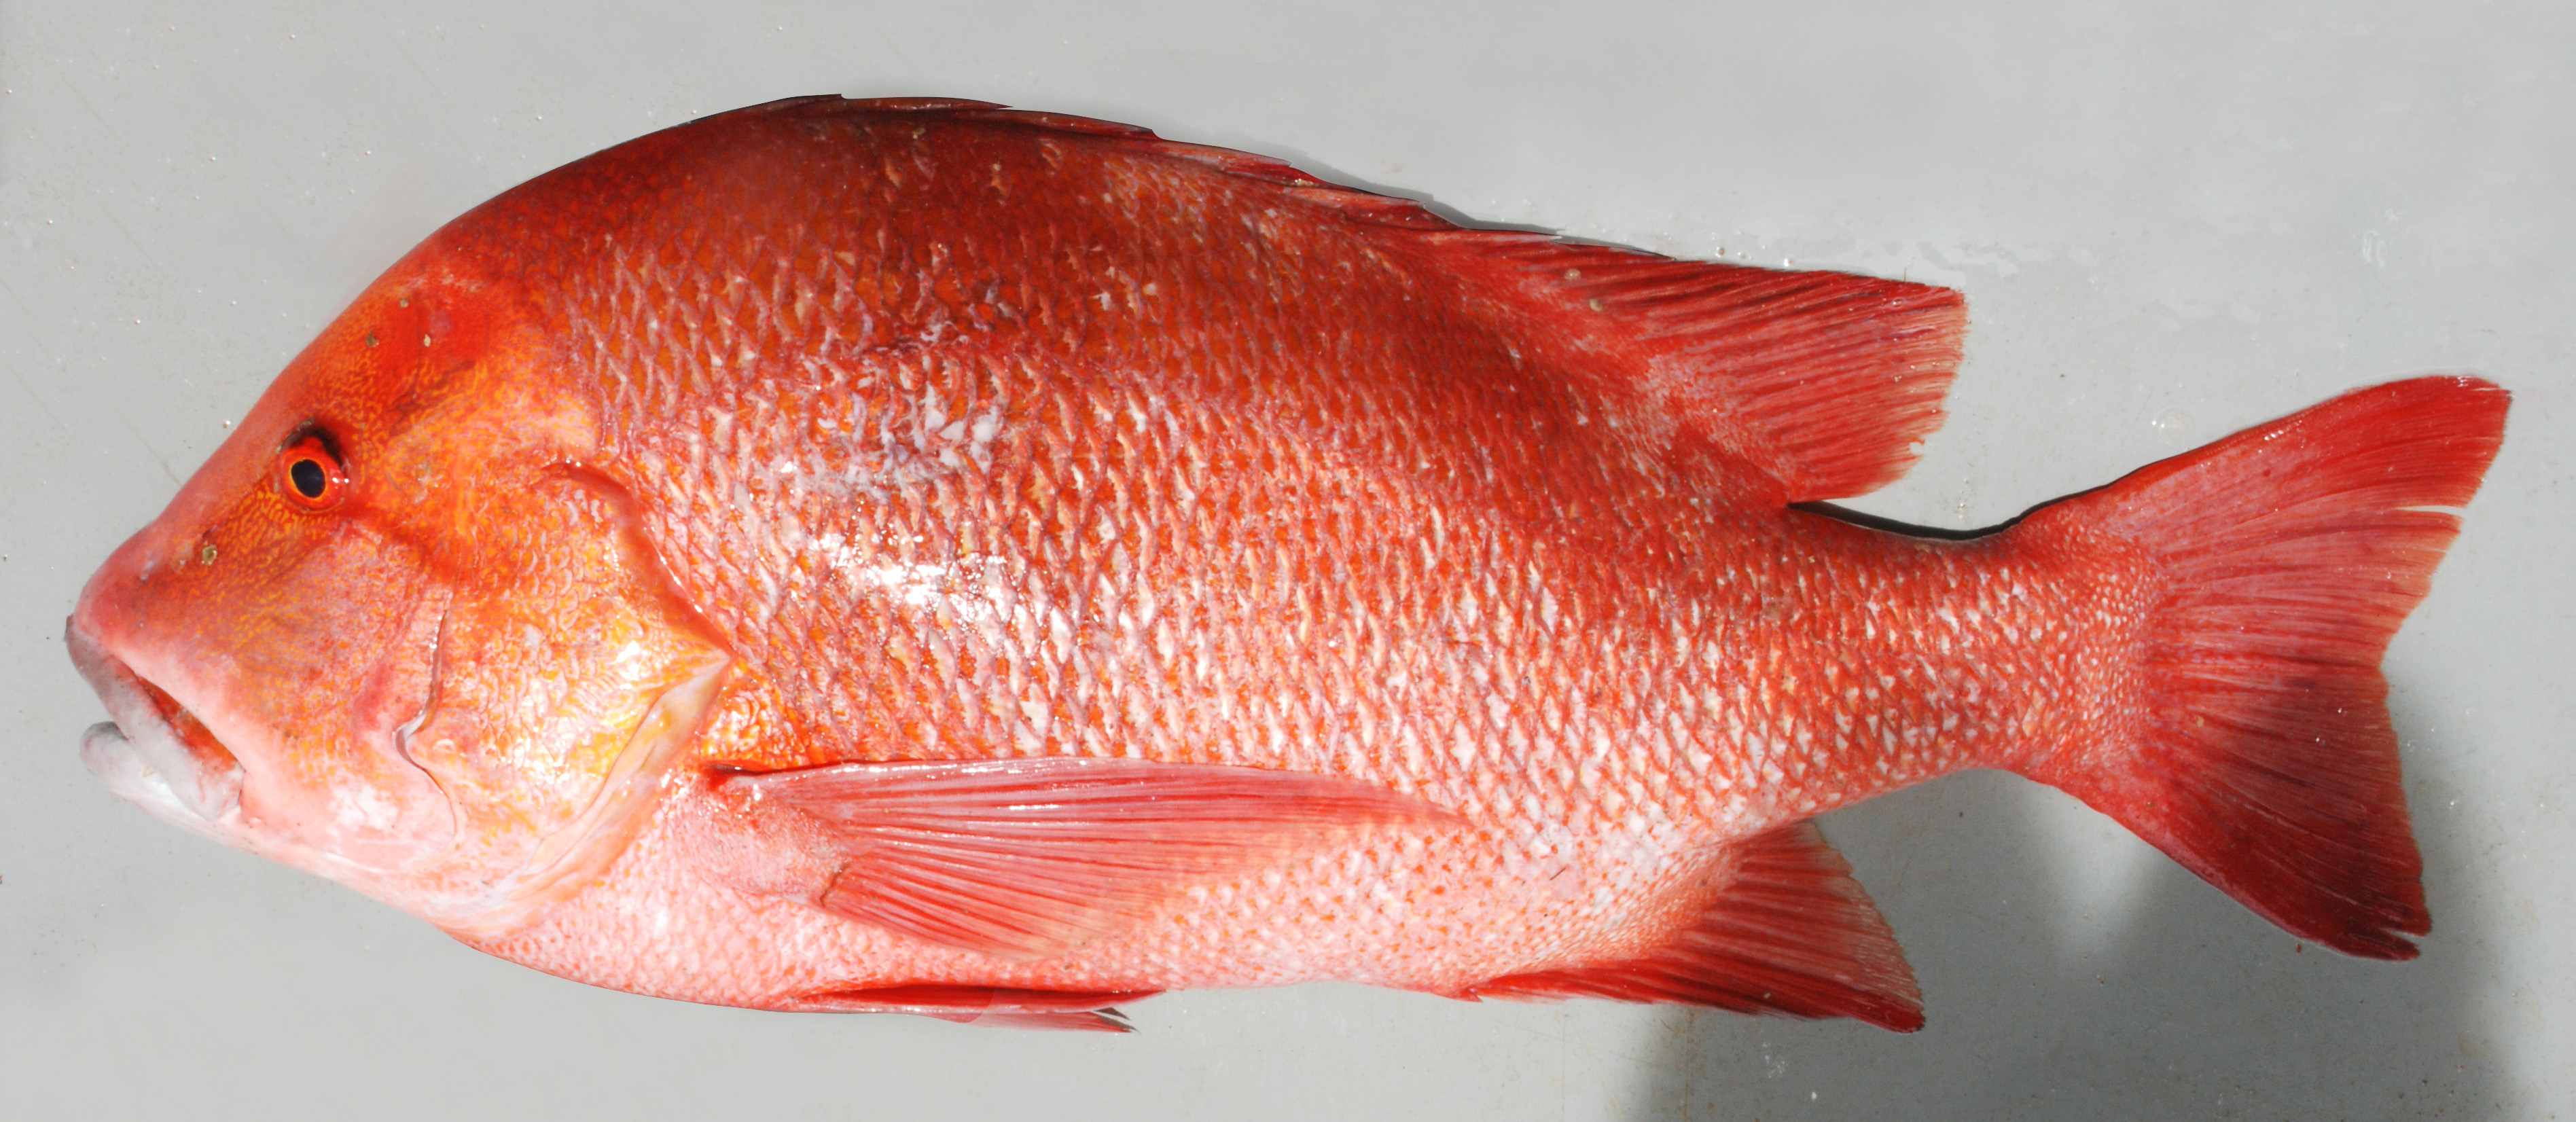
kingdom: Animalia
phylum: Chordata
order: Perciformes
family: Lutjanidae
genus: Lutjanus
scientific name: Lutjanus sebae
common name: Emperor red snapper
